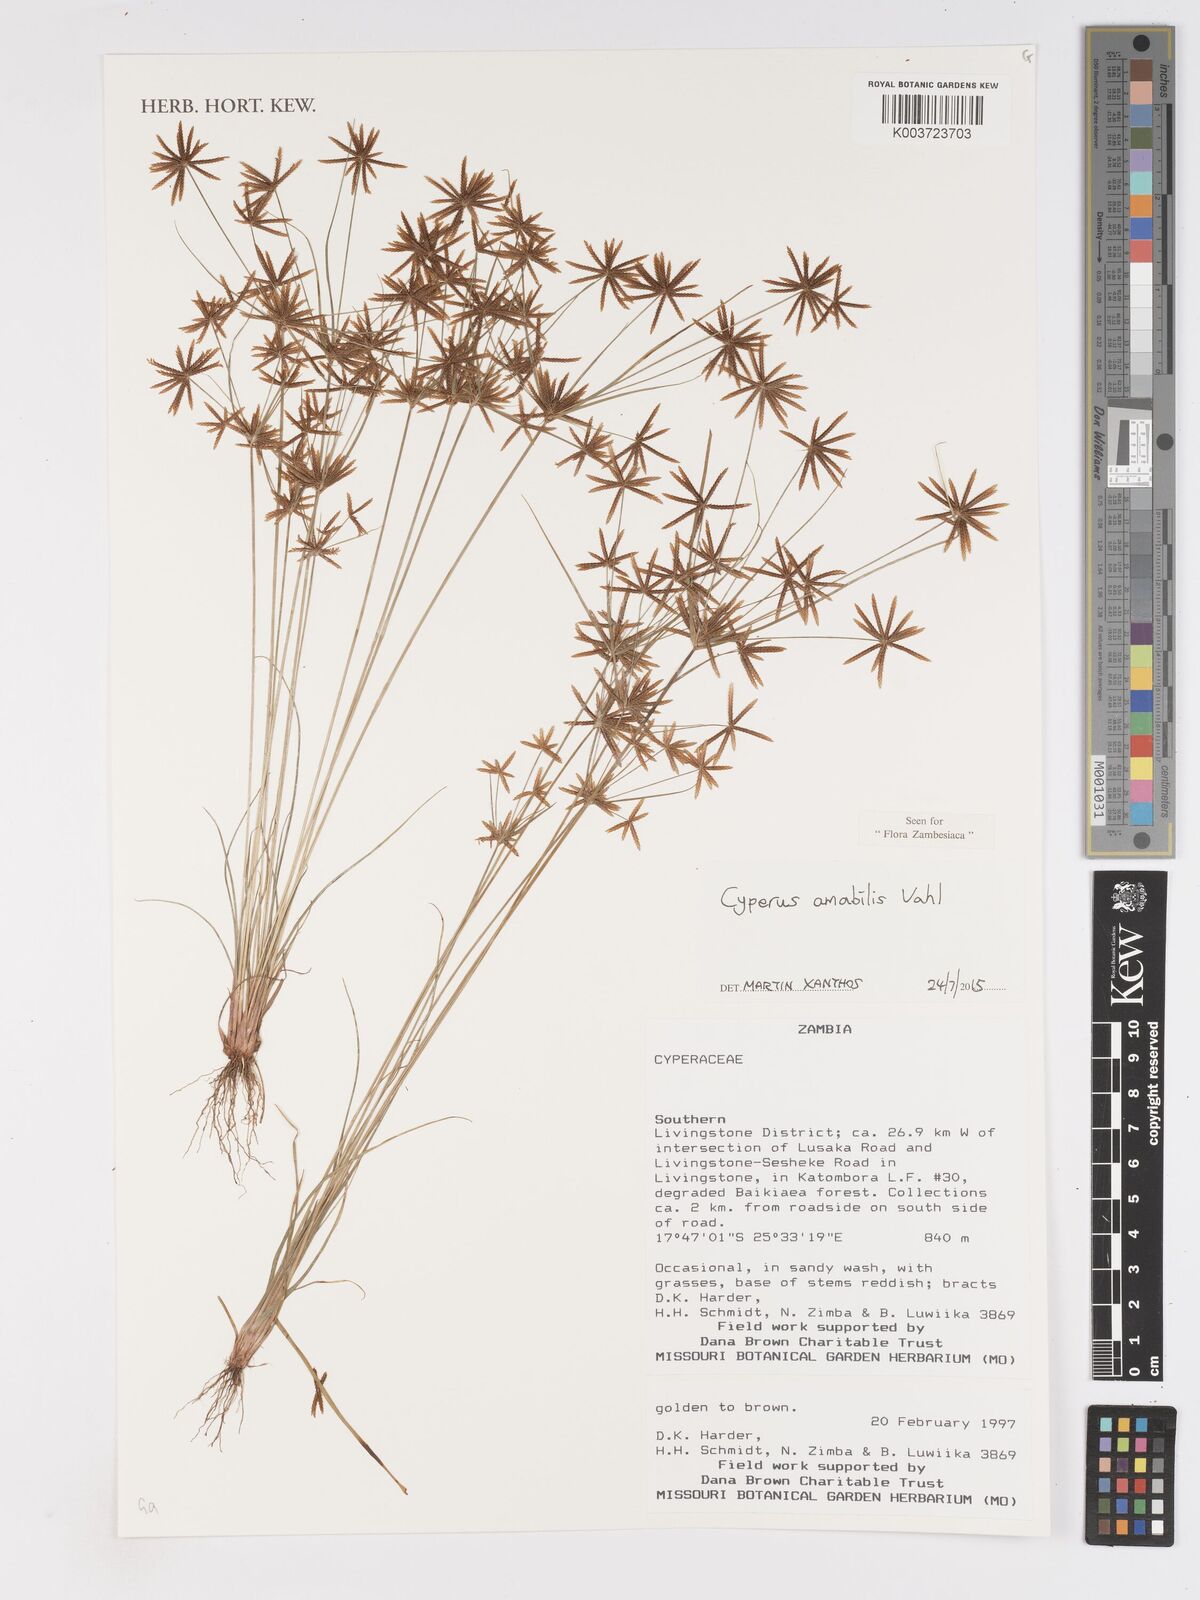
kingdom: Plantae
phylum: Tracheophyta
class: Liliopsida
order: Poales
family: Cyperaceae
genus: Cyperus
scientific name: Cyperus amabilis
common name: Foothill flat sedge
